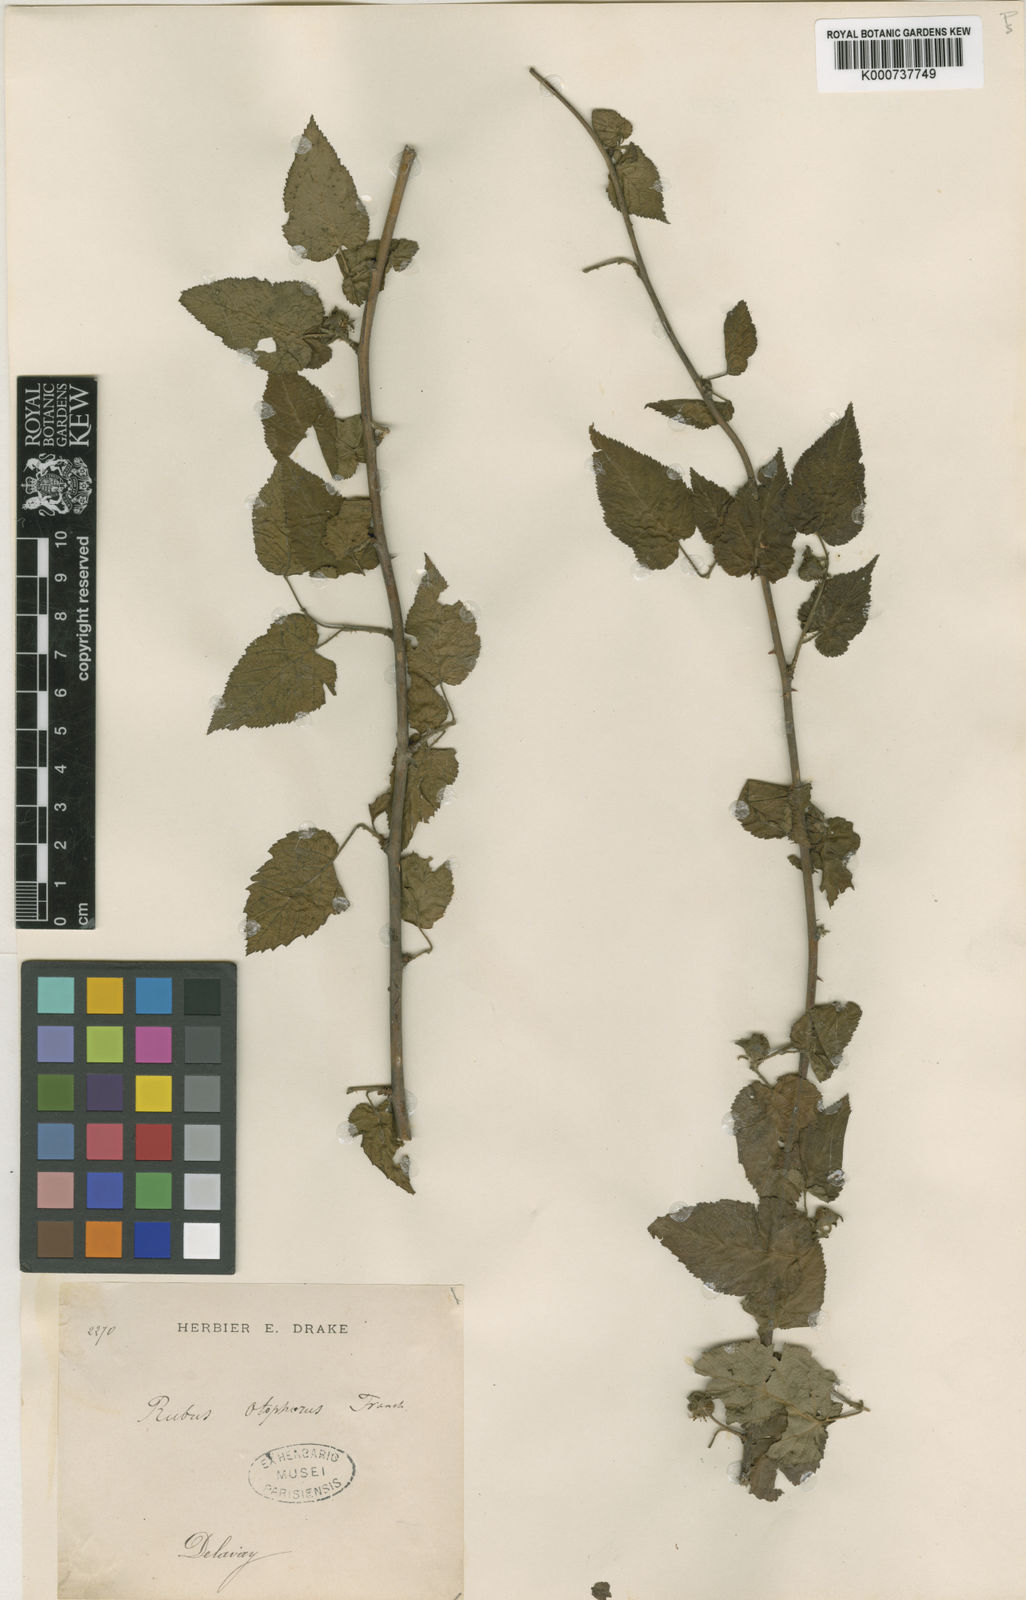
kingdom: Plantae
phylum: Tracheophyta
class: Magnoliopsida
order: Rosales
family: Rosaceae
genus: Rubus
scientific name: Rubus corchorifolius
